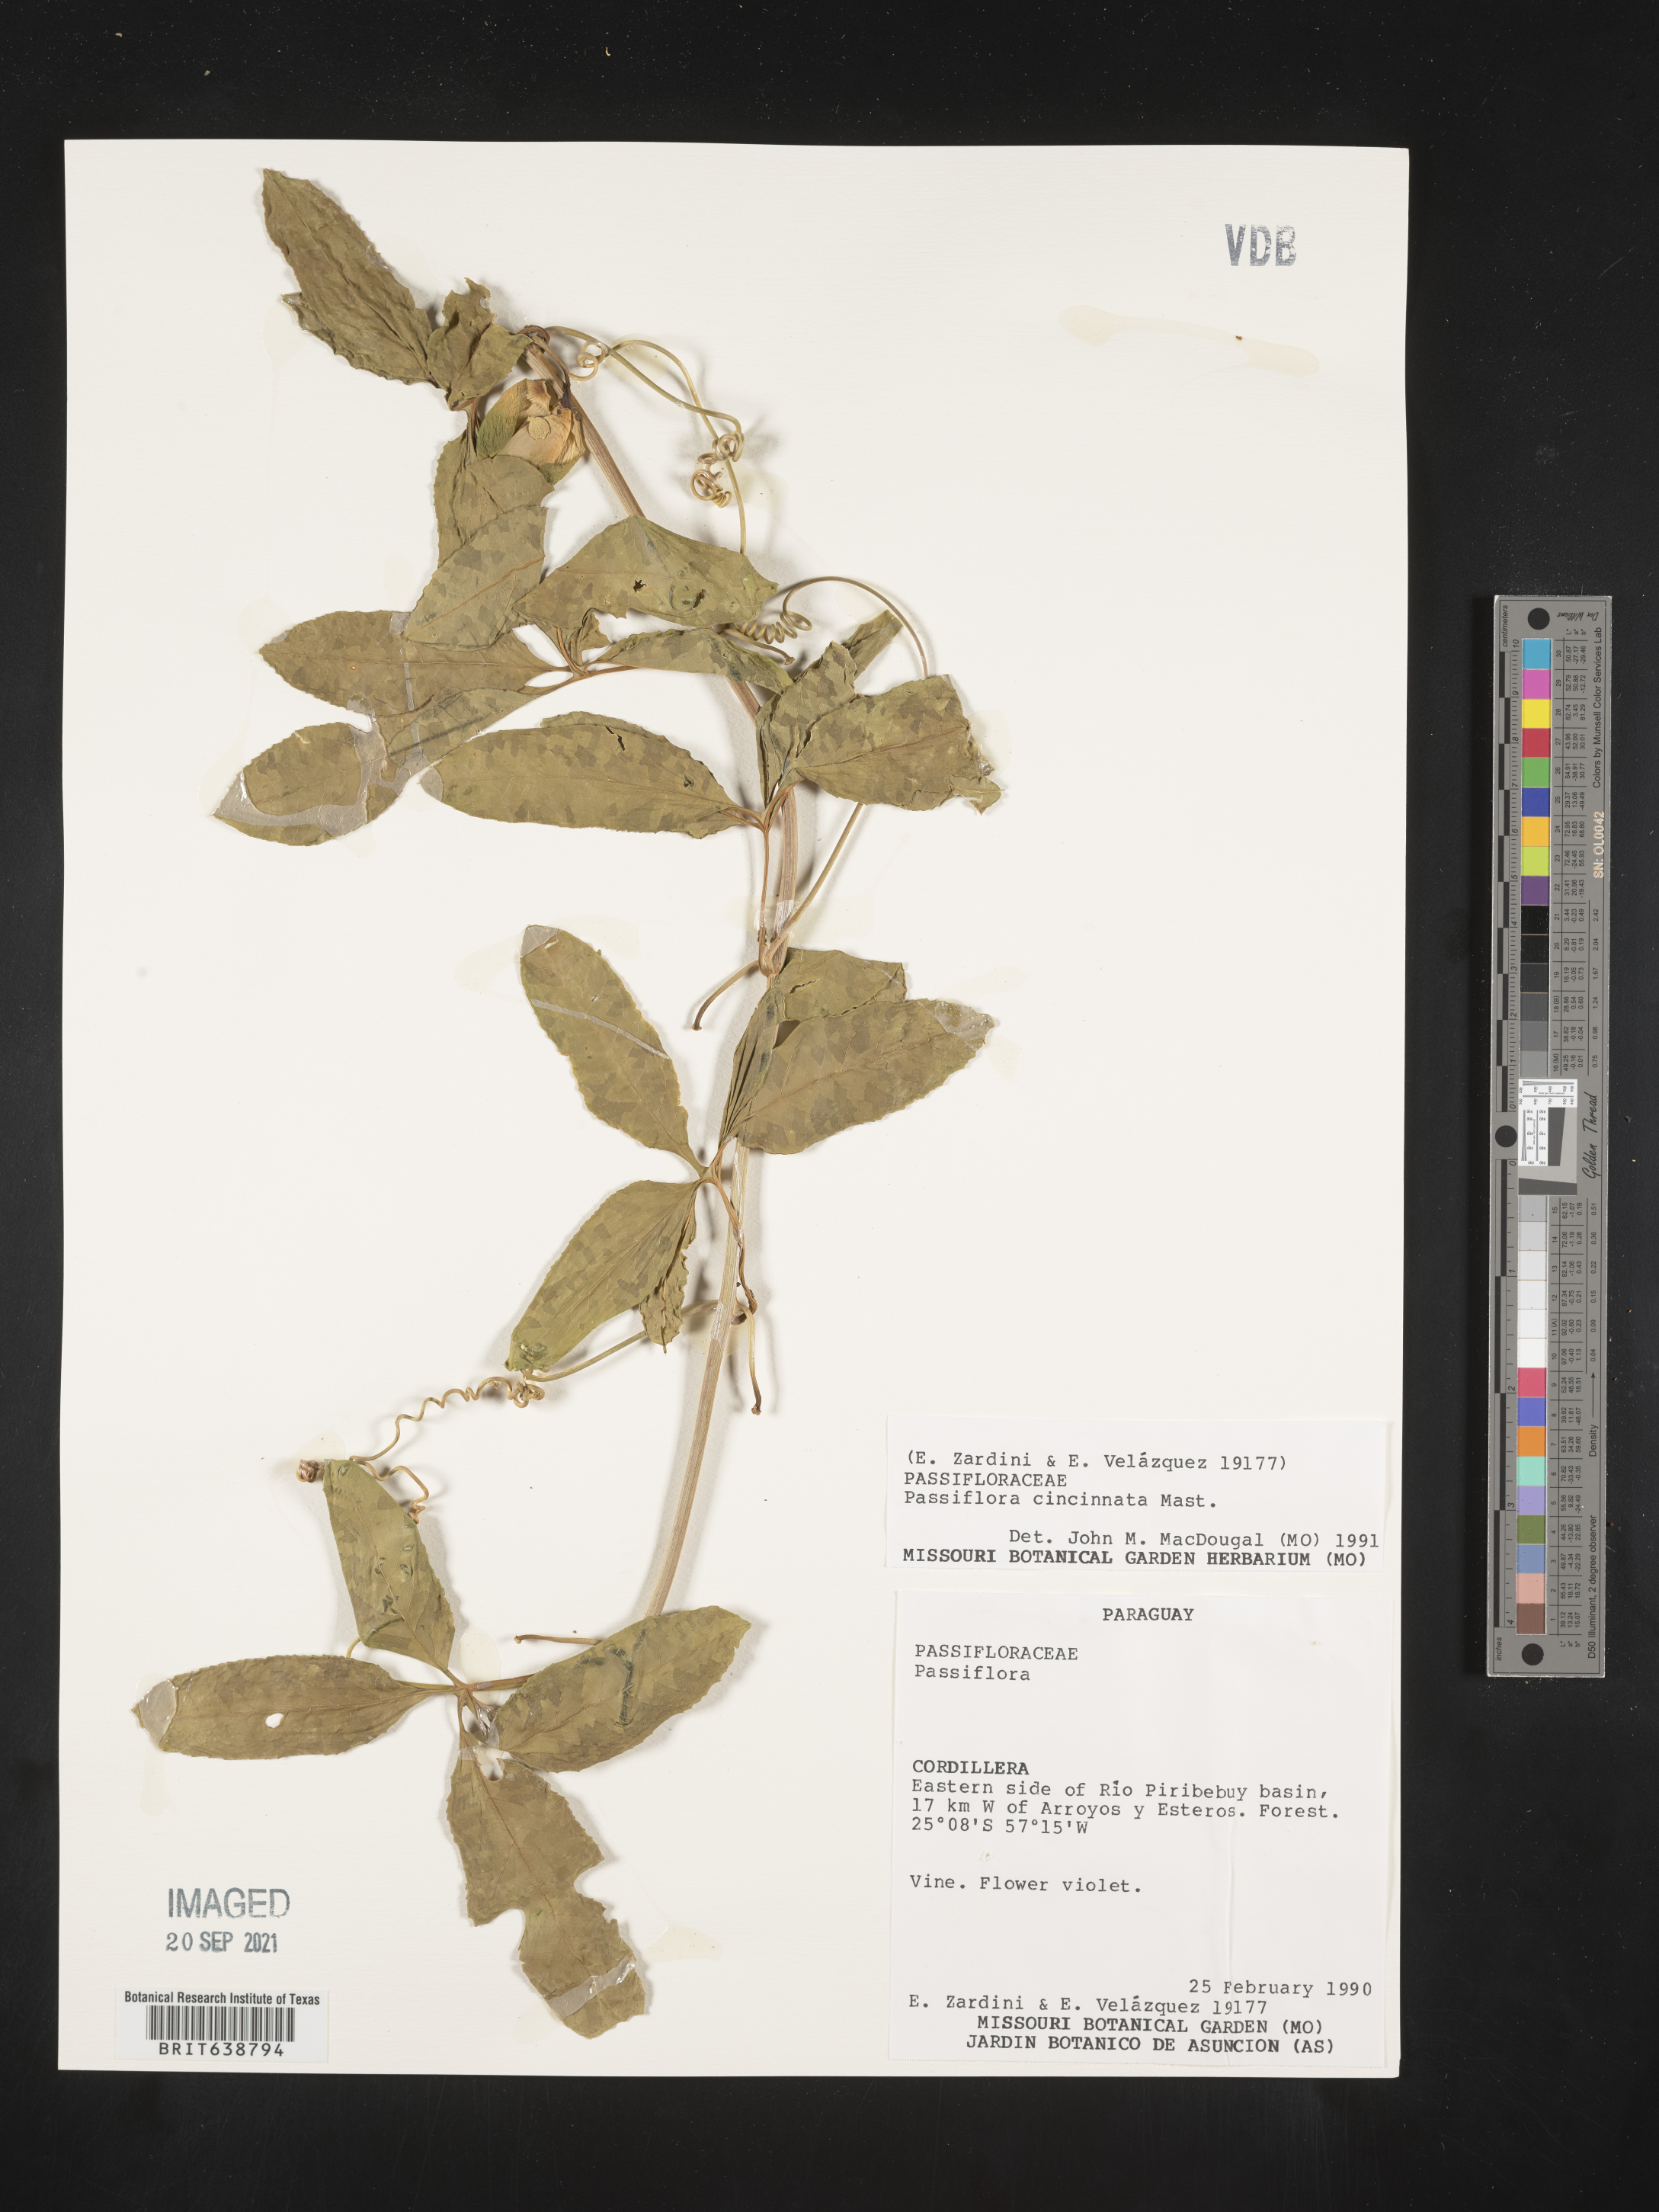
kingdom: Plantae
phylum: Tracheophyta
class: Magnoliopsida
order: Malpighiales
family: Passifloraceae
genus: Passiflora
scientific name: Passiflora
